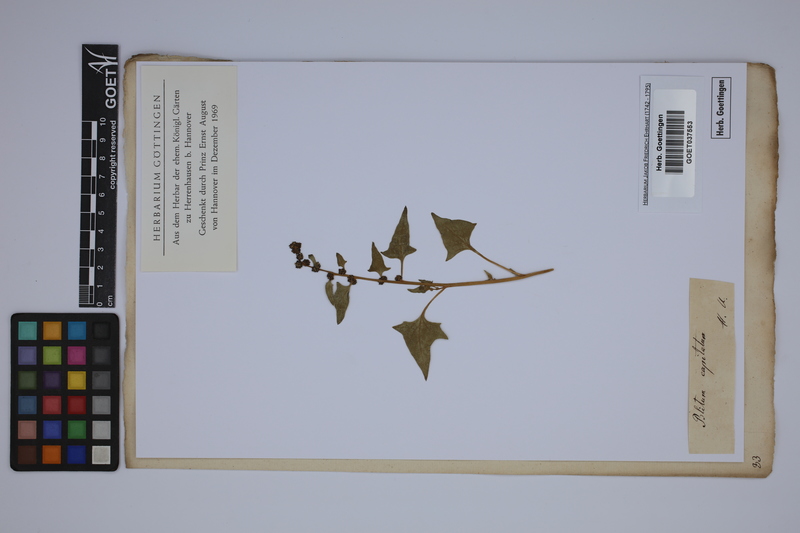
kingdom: Plantae
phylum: Tracheophyta
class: Magnoliopsida
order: Caryophyllales
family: Amaranthaceae
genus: Blitum
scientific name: Blitum capitatum
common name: Strawberry-blight
